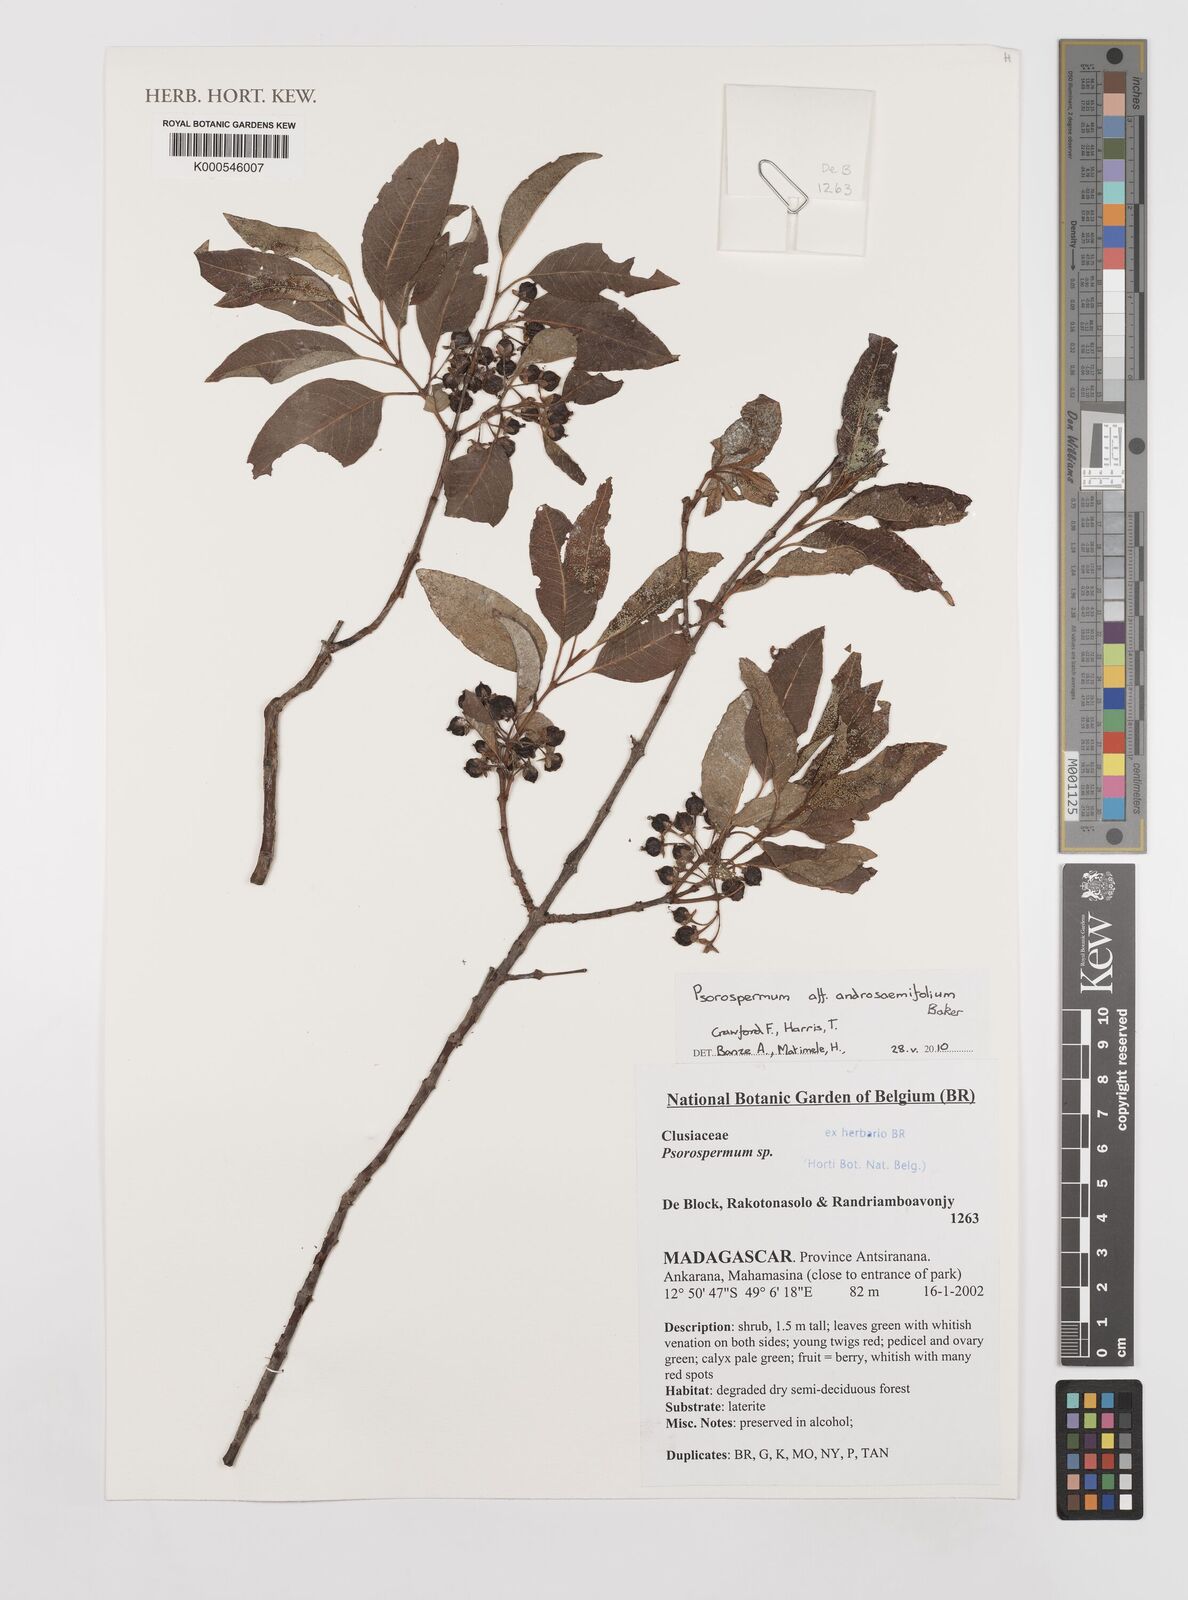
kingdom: Plantae
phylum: Tracheophyta
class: Magnoliopsida
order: Malpighiales
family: Hypericaceae
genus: Psorospermum
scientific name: Psorospermum androsaemifolium
